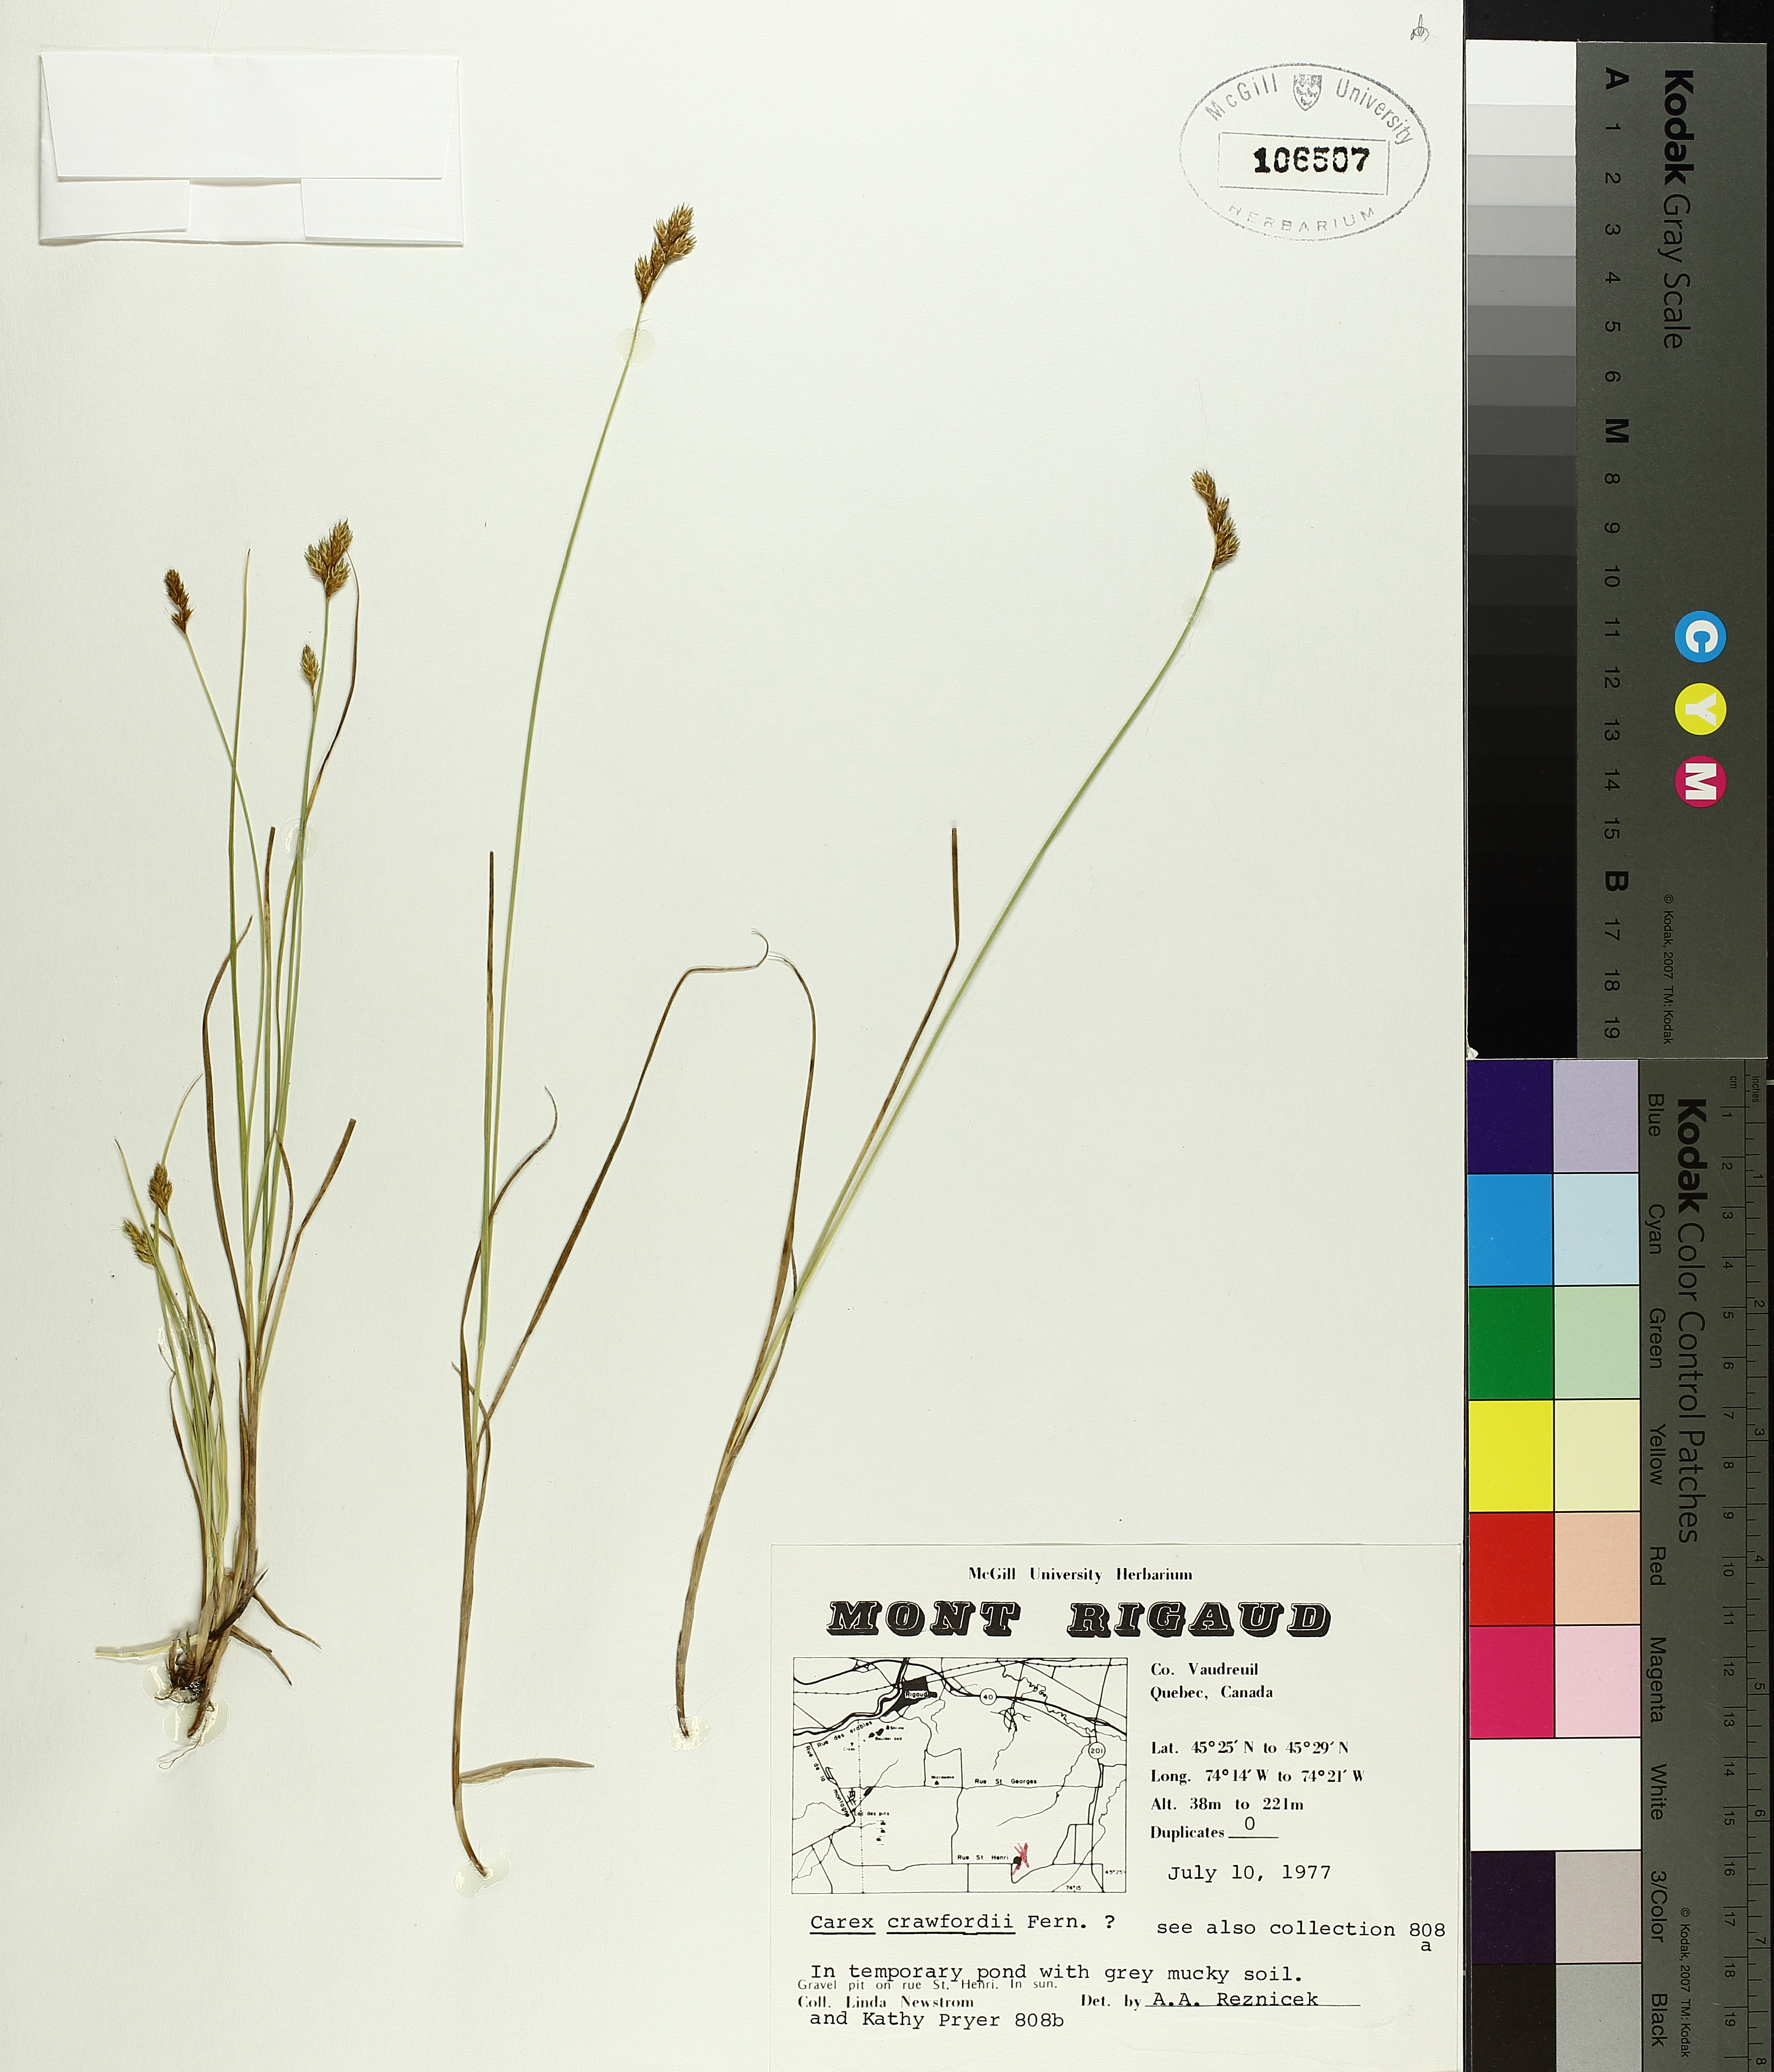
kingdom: Plantae
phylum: Tracheophyta
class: Liliopsida
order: Poales
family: Cyperaceae
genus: Carex
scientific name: Carex crawfordii
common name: Crawford's sedge
